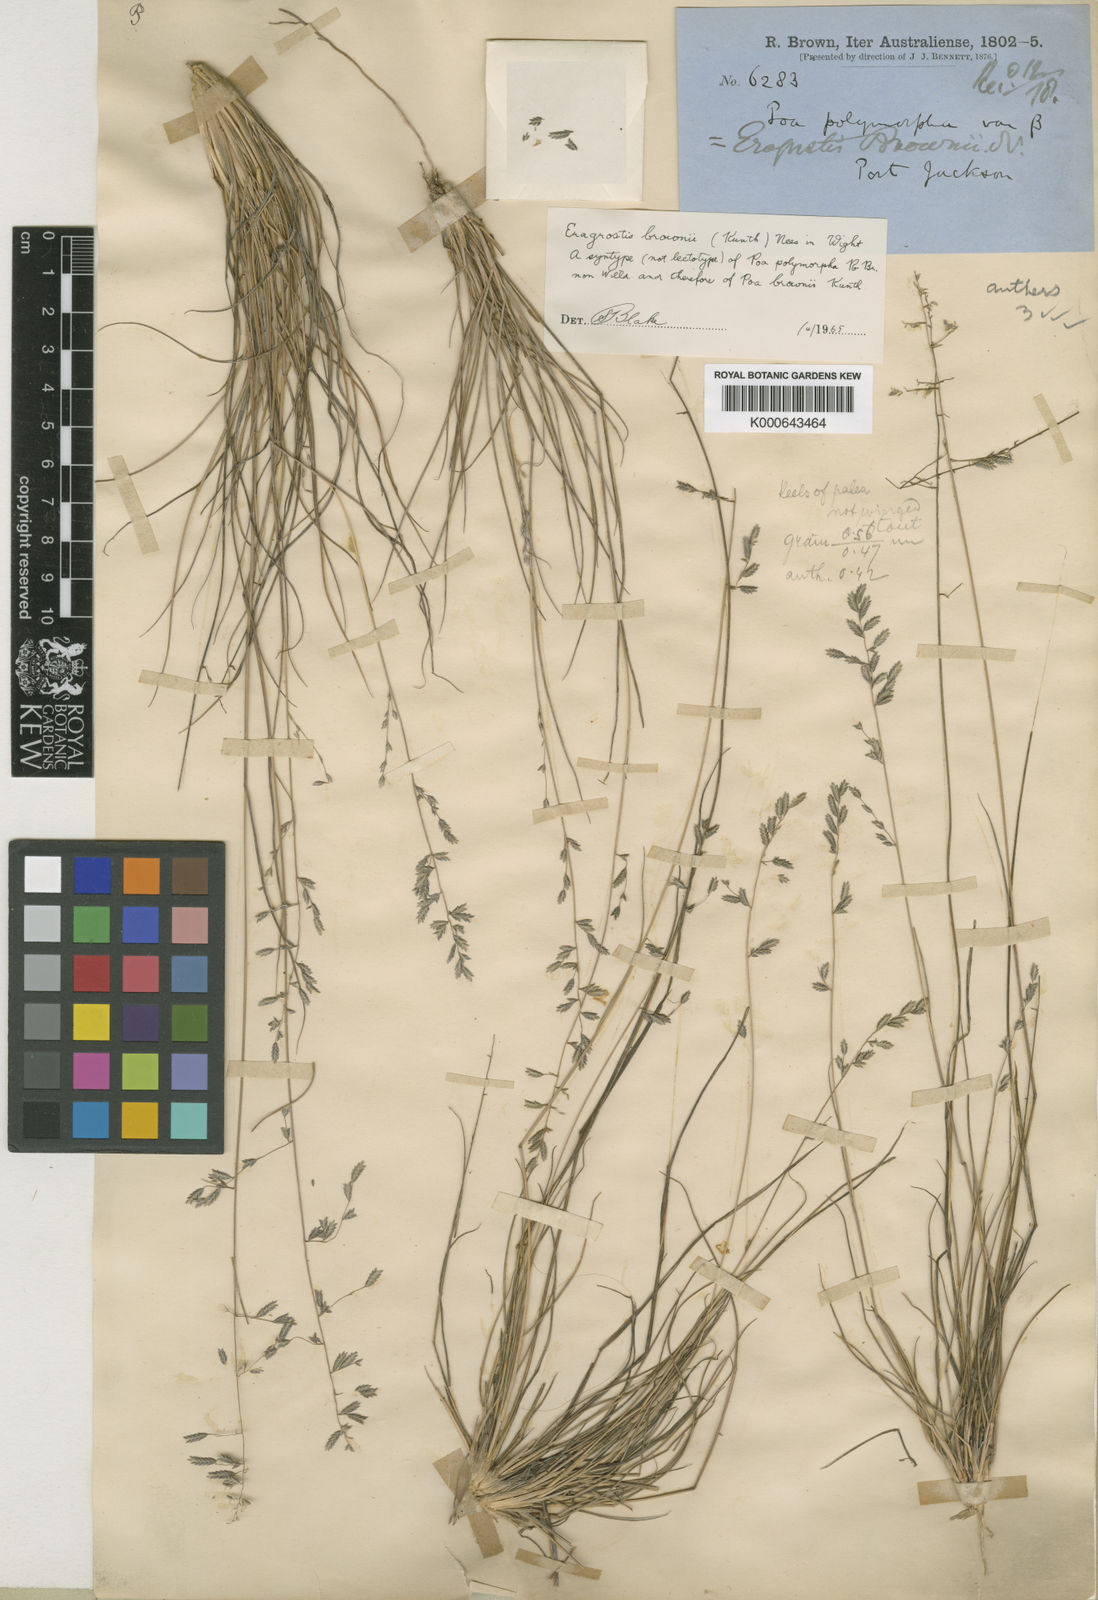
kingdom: Plantae
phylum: Tracheophyta
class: Liliopsida
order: Poales
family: Poaceae
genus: Eragrostis
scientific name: Eragrostis brownii
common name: Lovegrass
